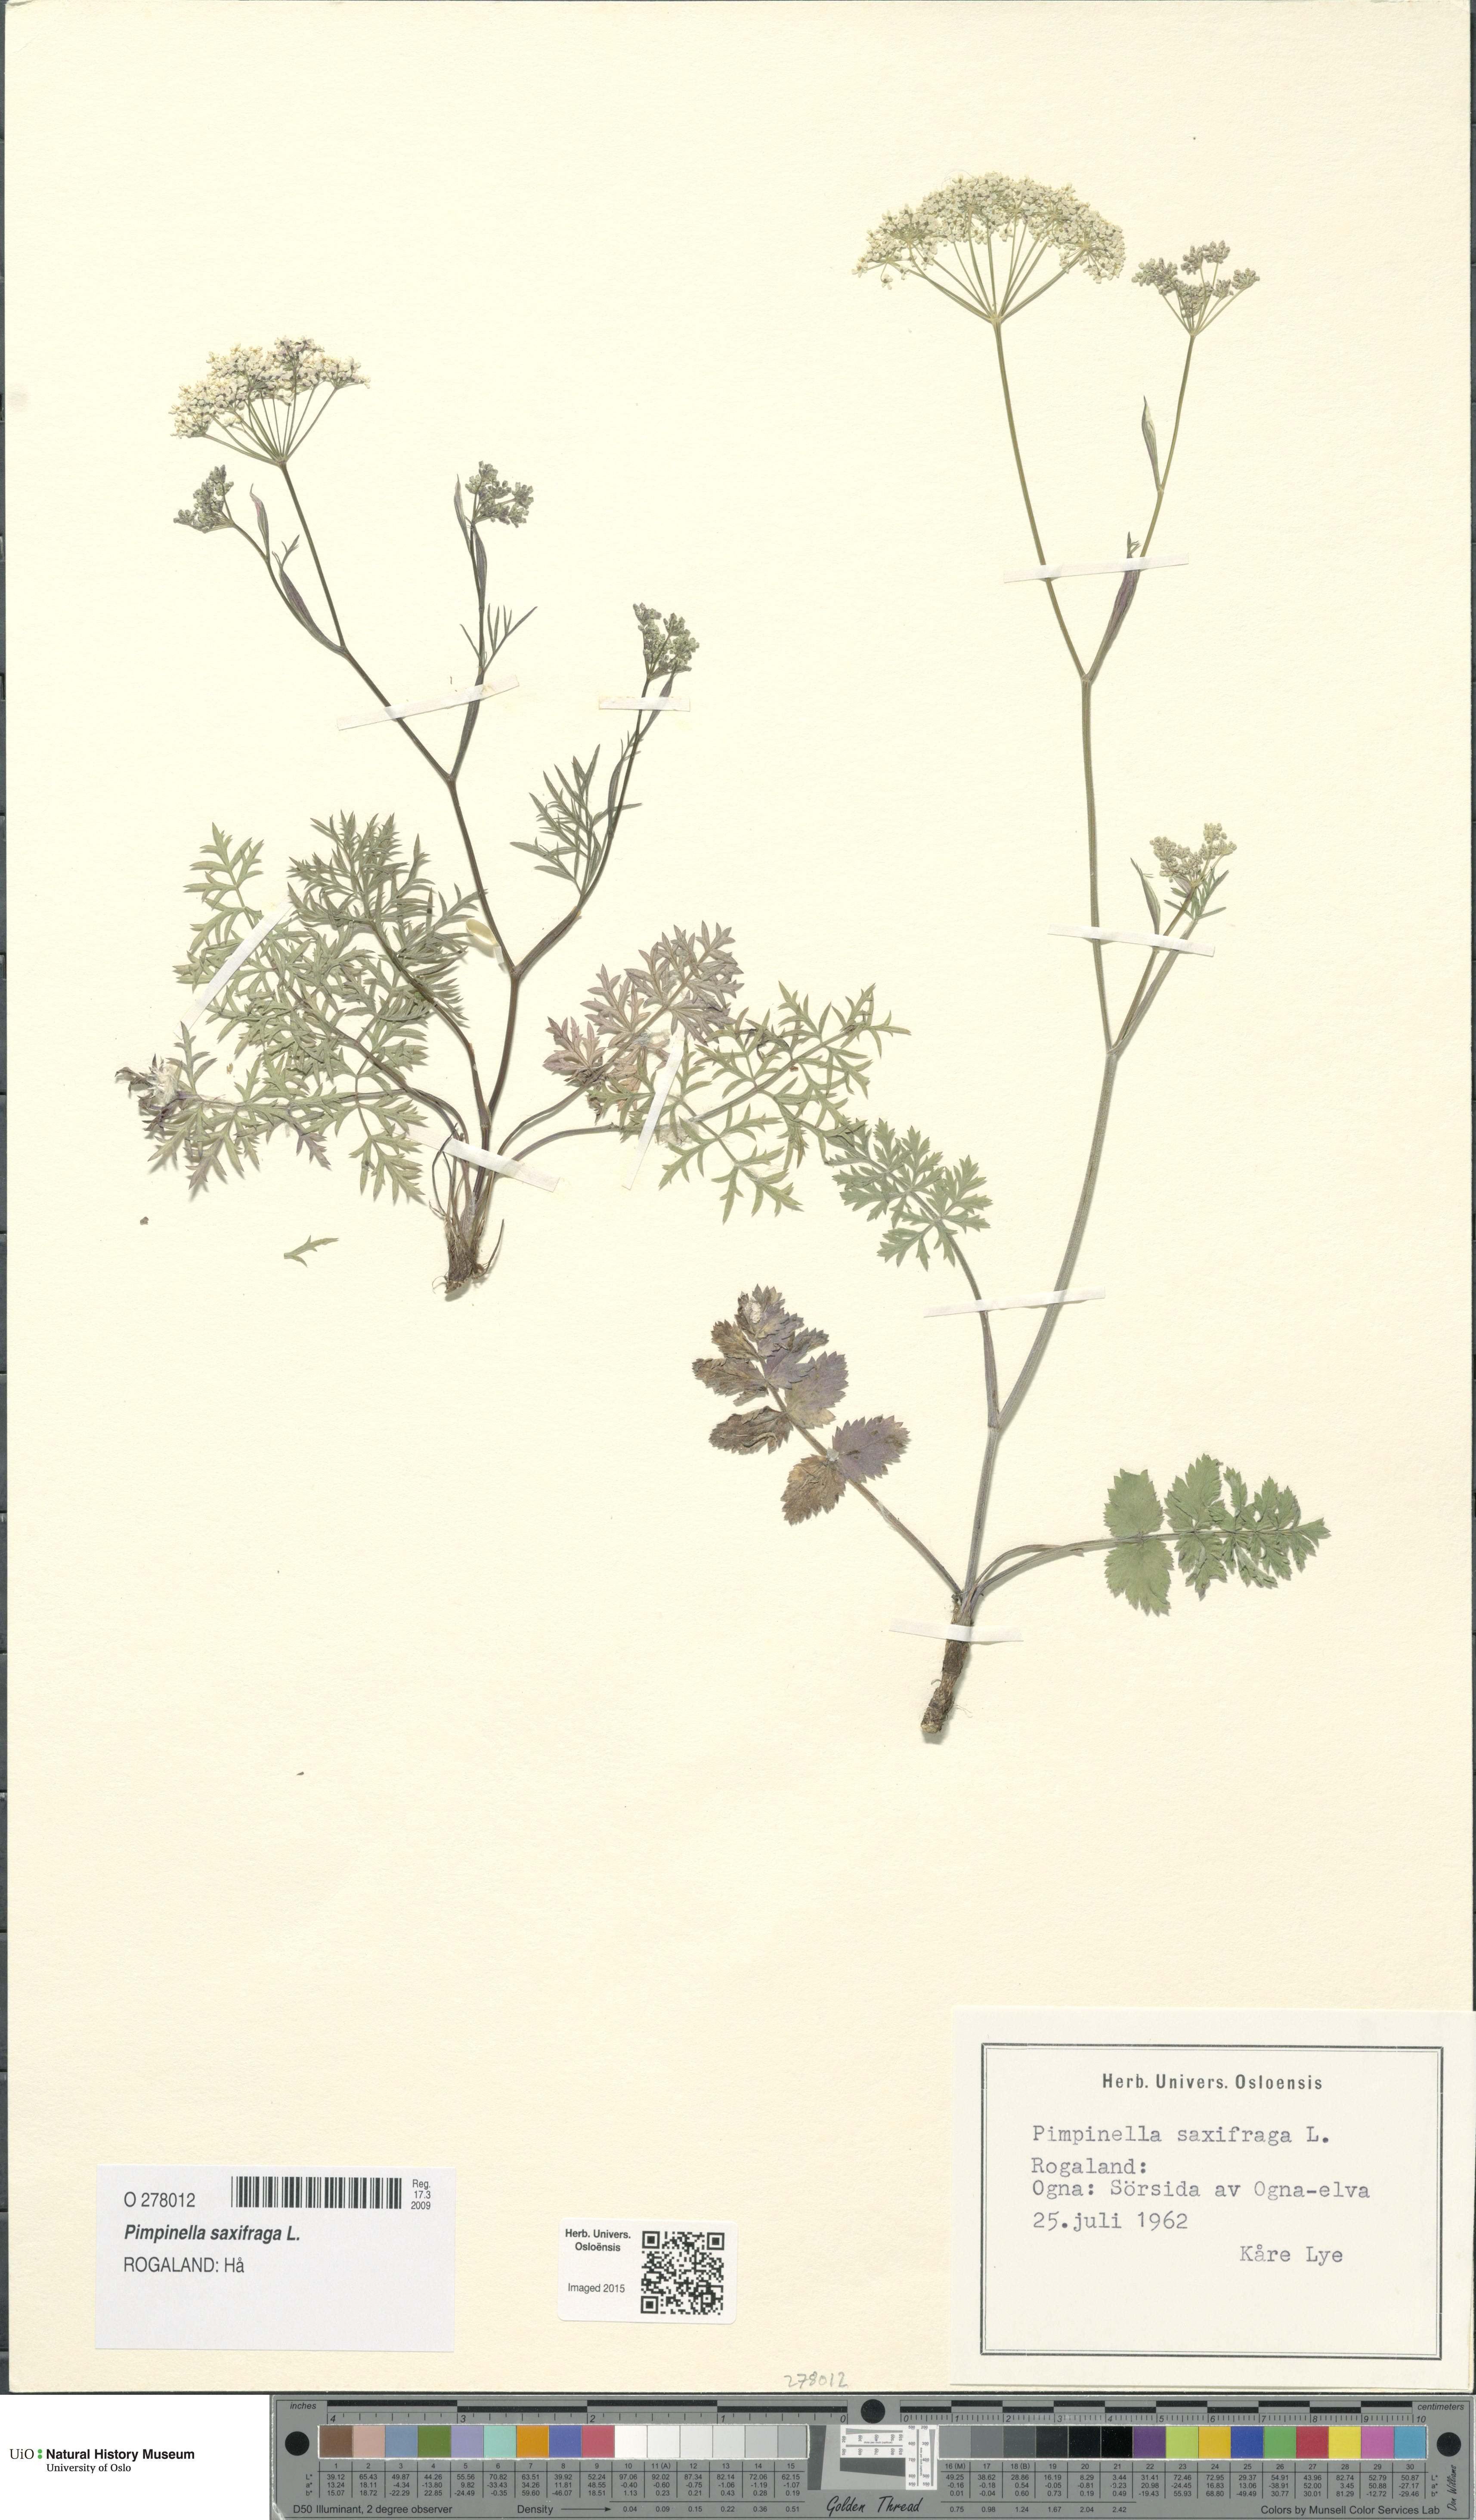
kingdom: Plantae
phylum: Tracheophyta
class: Magnoliopsida
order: Apiales
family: Apiaceae
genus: Pimpinella
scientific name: Pimpinella saxifraga
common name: Burnet-saxifrage
